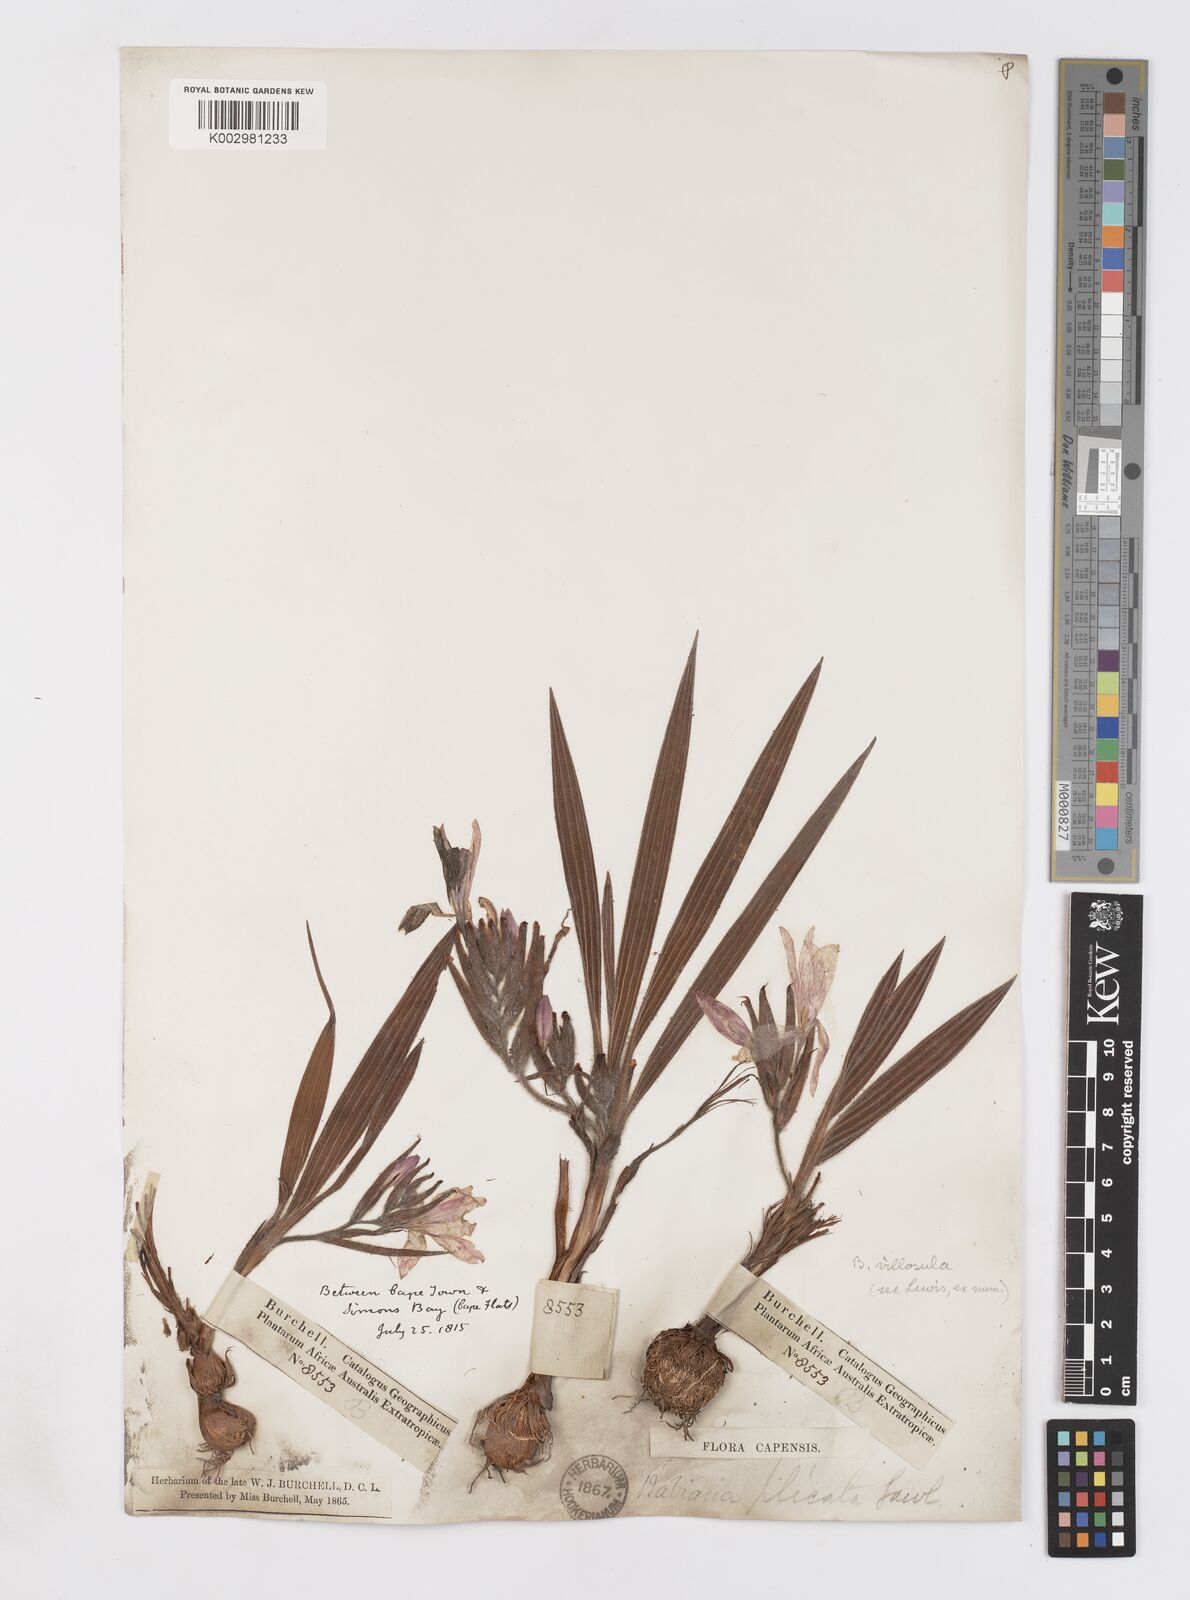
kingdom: Plantae
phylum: Tracheophyta
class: Liliopsida
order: Asparagales
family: Iridaceae
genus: Babiana
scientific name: Babiana villosula
